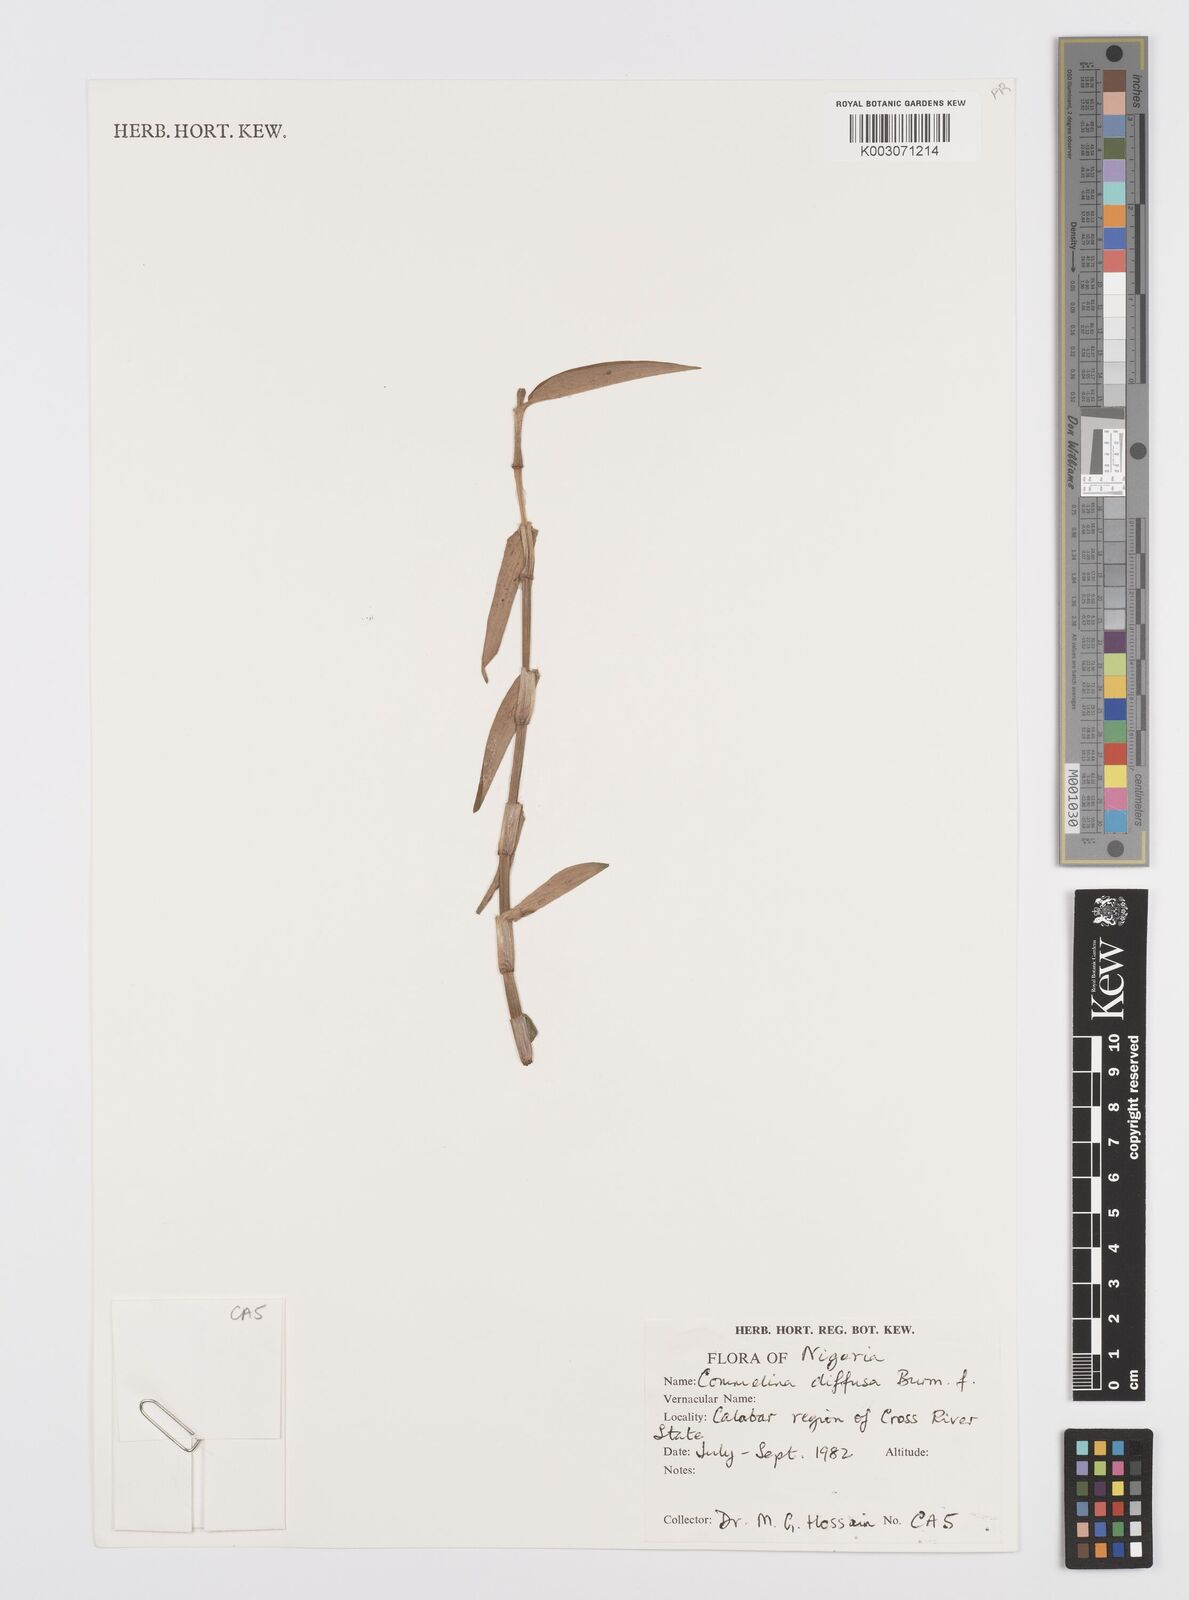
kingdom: Plantae
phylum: Tracheophyta
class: Liliopsida
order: Commelinales
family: Commelinaceae
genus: Commelina
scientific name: Commelina diffusa
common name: Climbing dayflower
